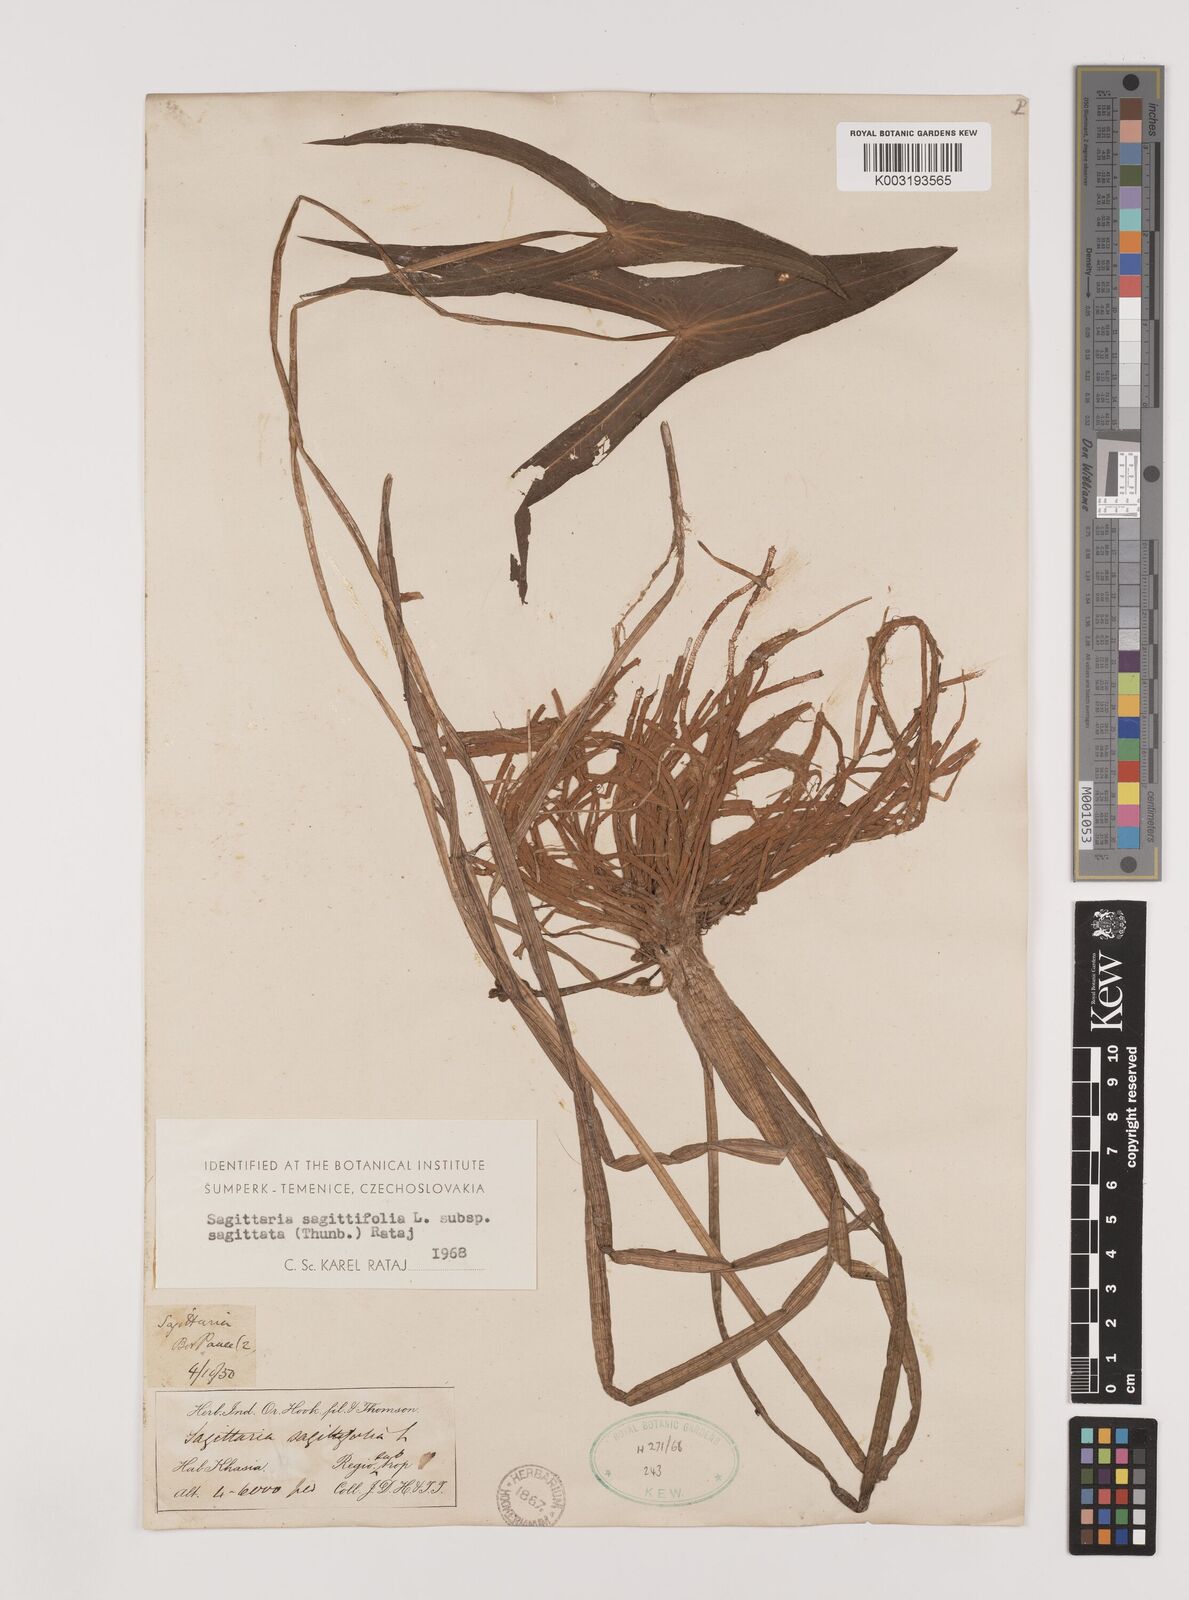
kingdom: Plantae
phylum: Tracheophyta
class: Liliopsida
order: Alismatales
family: Alismataceae
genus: Sagittaria
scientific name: Sagittaria sagittifolia
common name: Arrowhead
